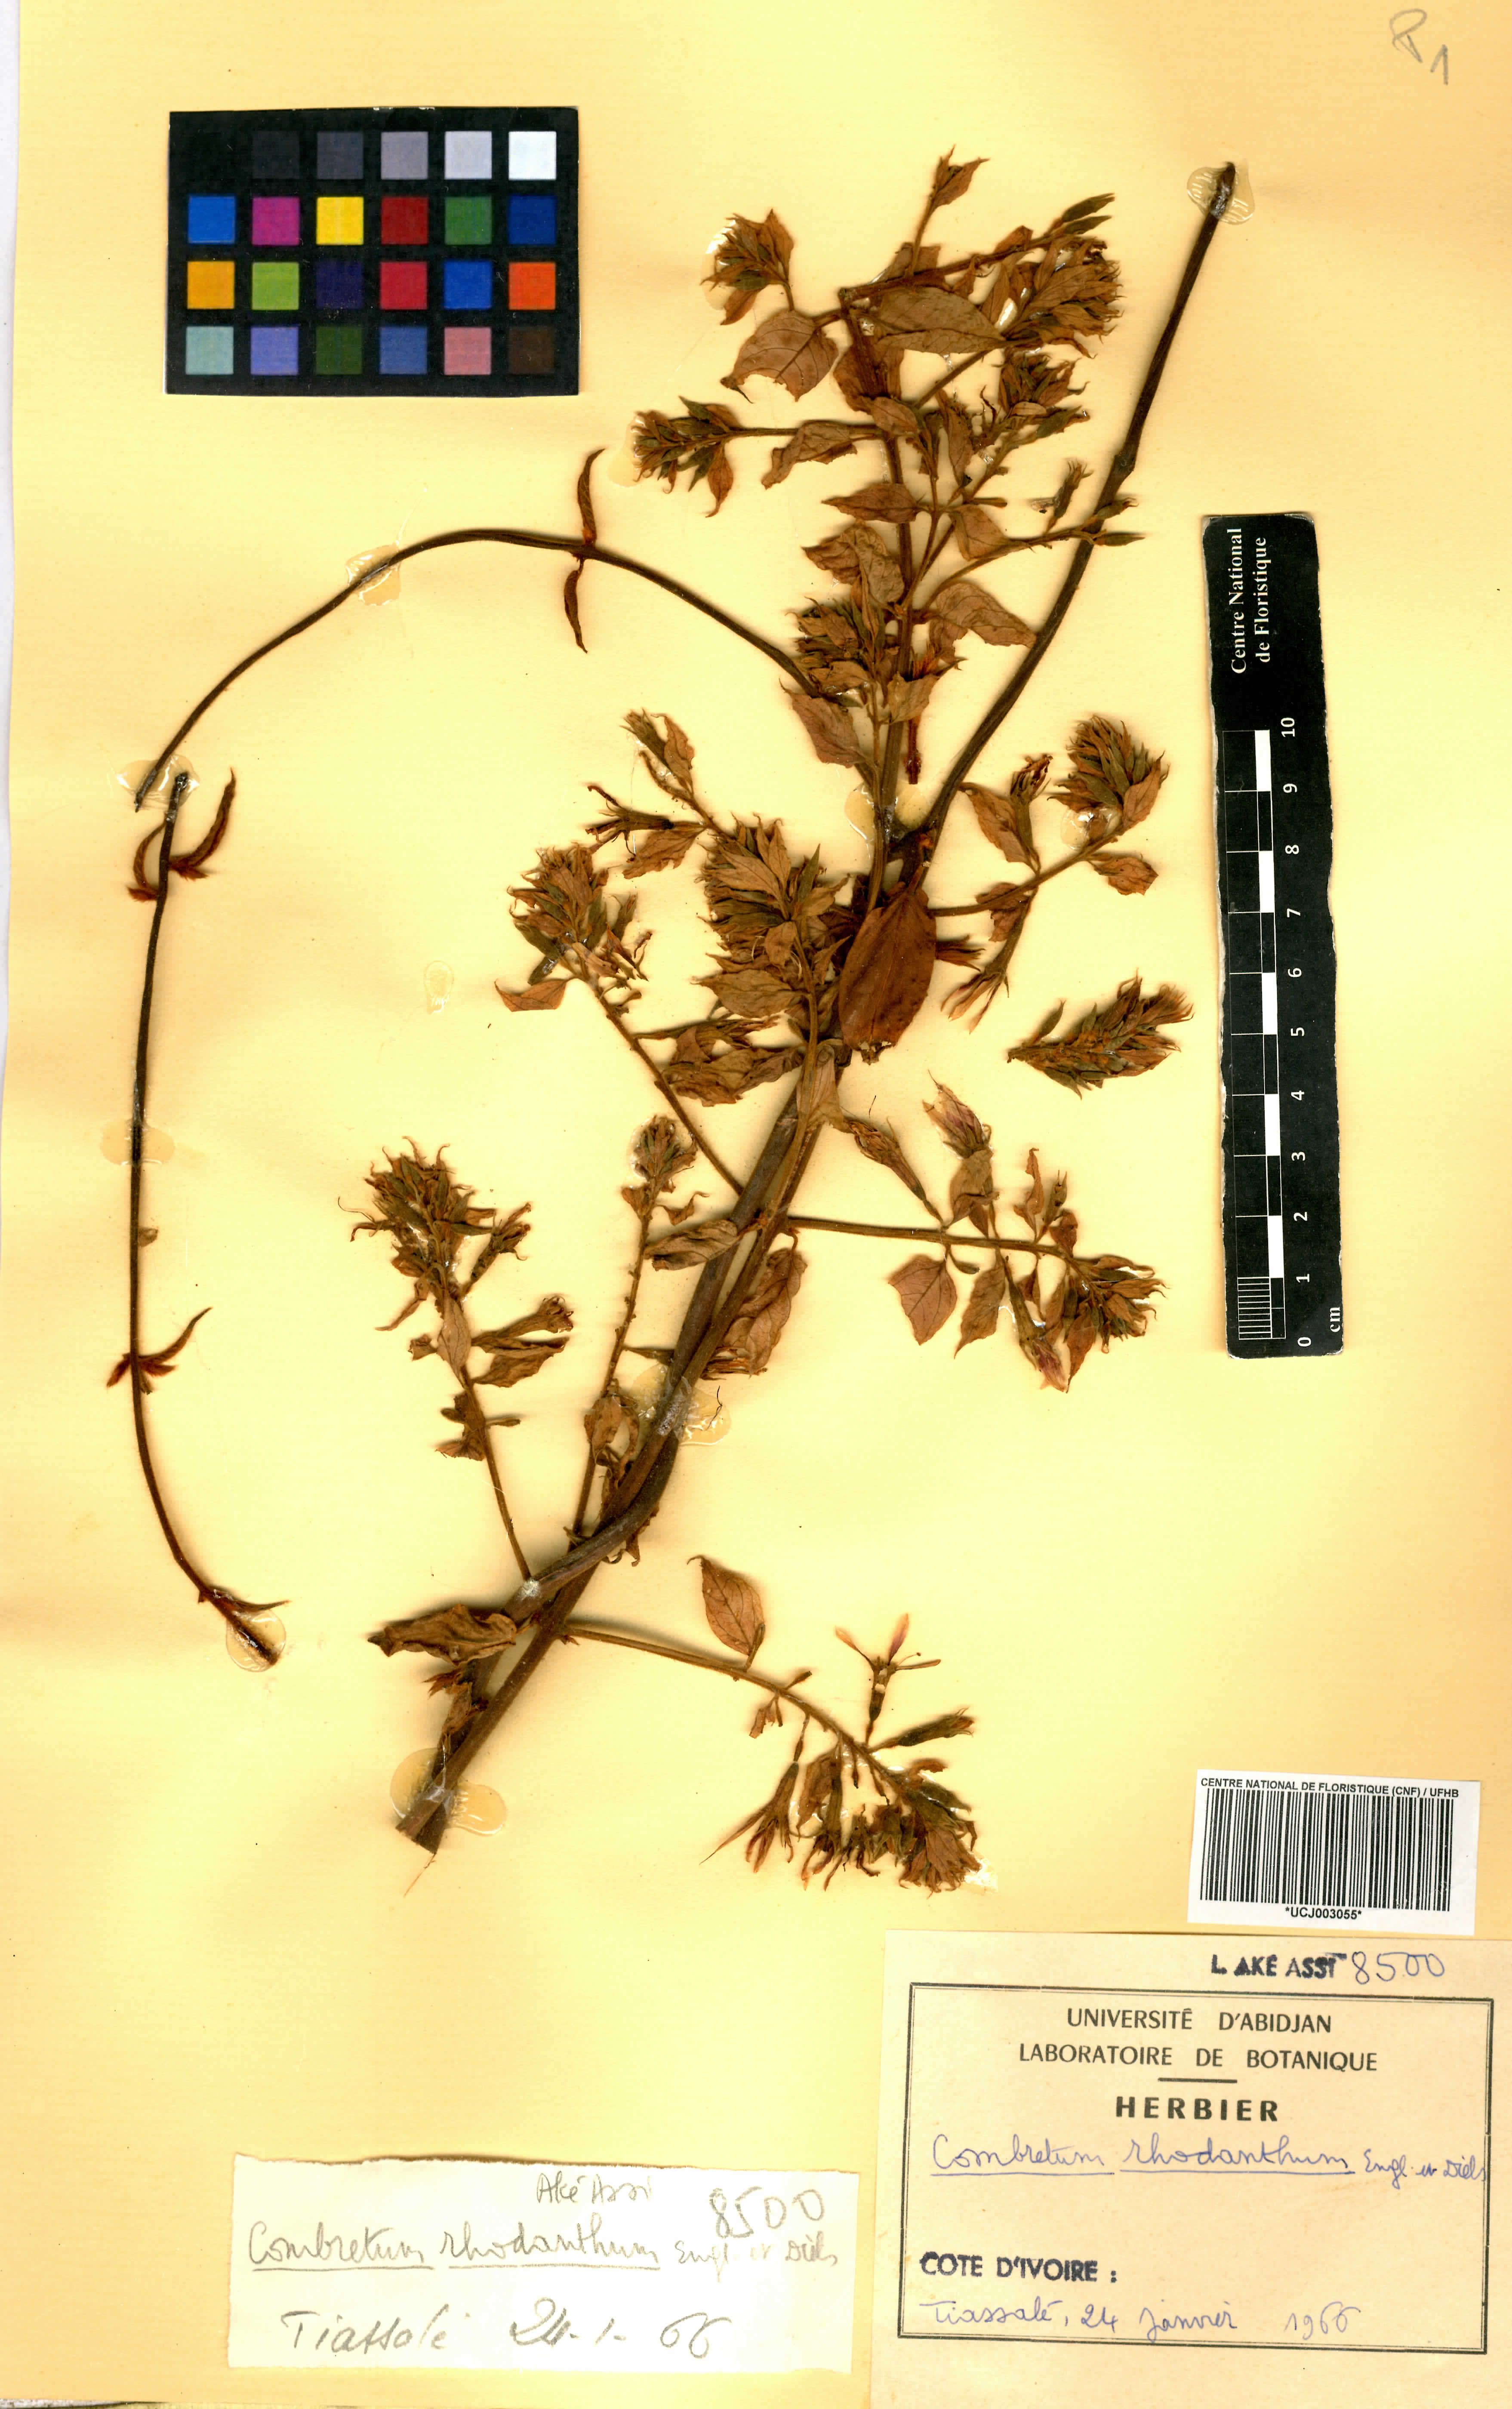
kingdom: Plantae
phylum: Tracheophyta
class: Magnoliopsida
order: Myrtales
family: Combretaceae
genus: Combretum
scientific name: Combretum comosum
